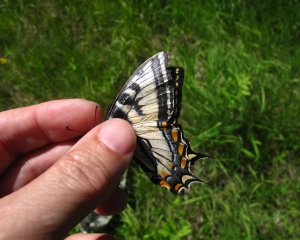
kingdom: Animalia
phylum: Arthropoda
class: Insecta
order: Lepidoptera
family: Papilionidae
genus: Pterourus
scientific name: Pterourus canadensis
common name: Canadian Tiger Swallowtail
